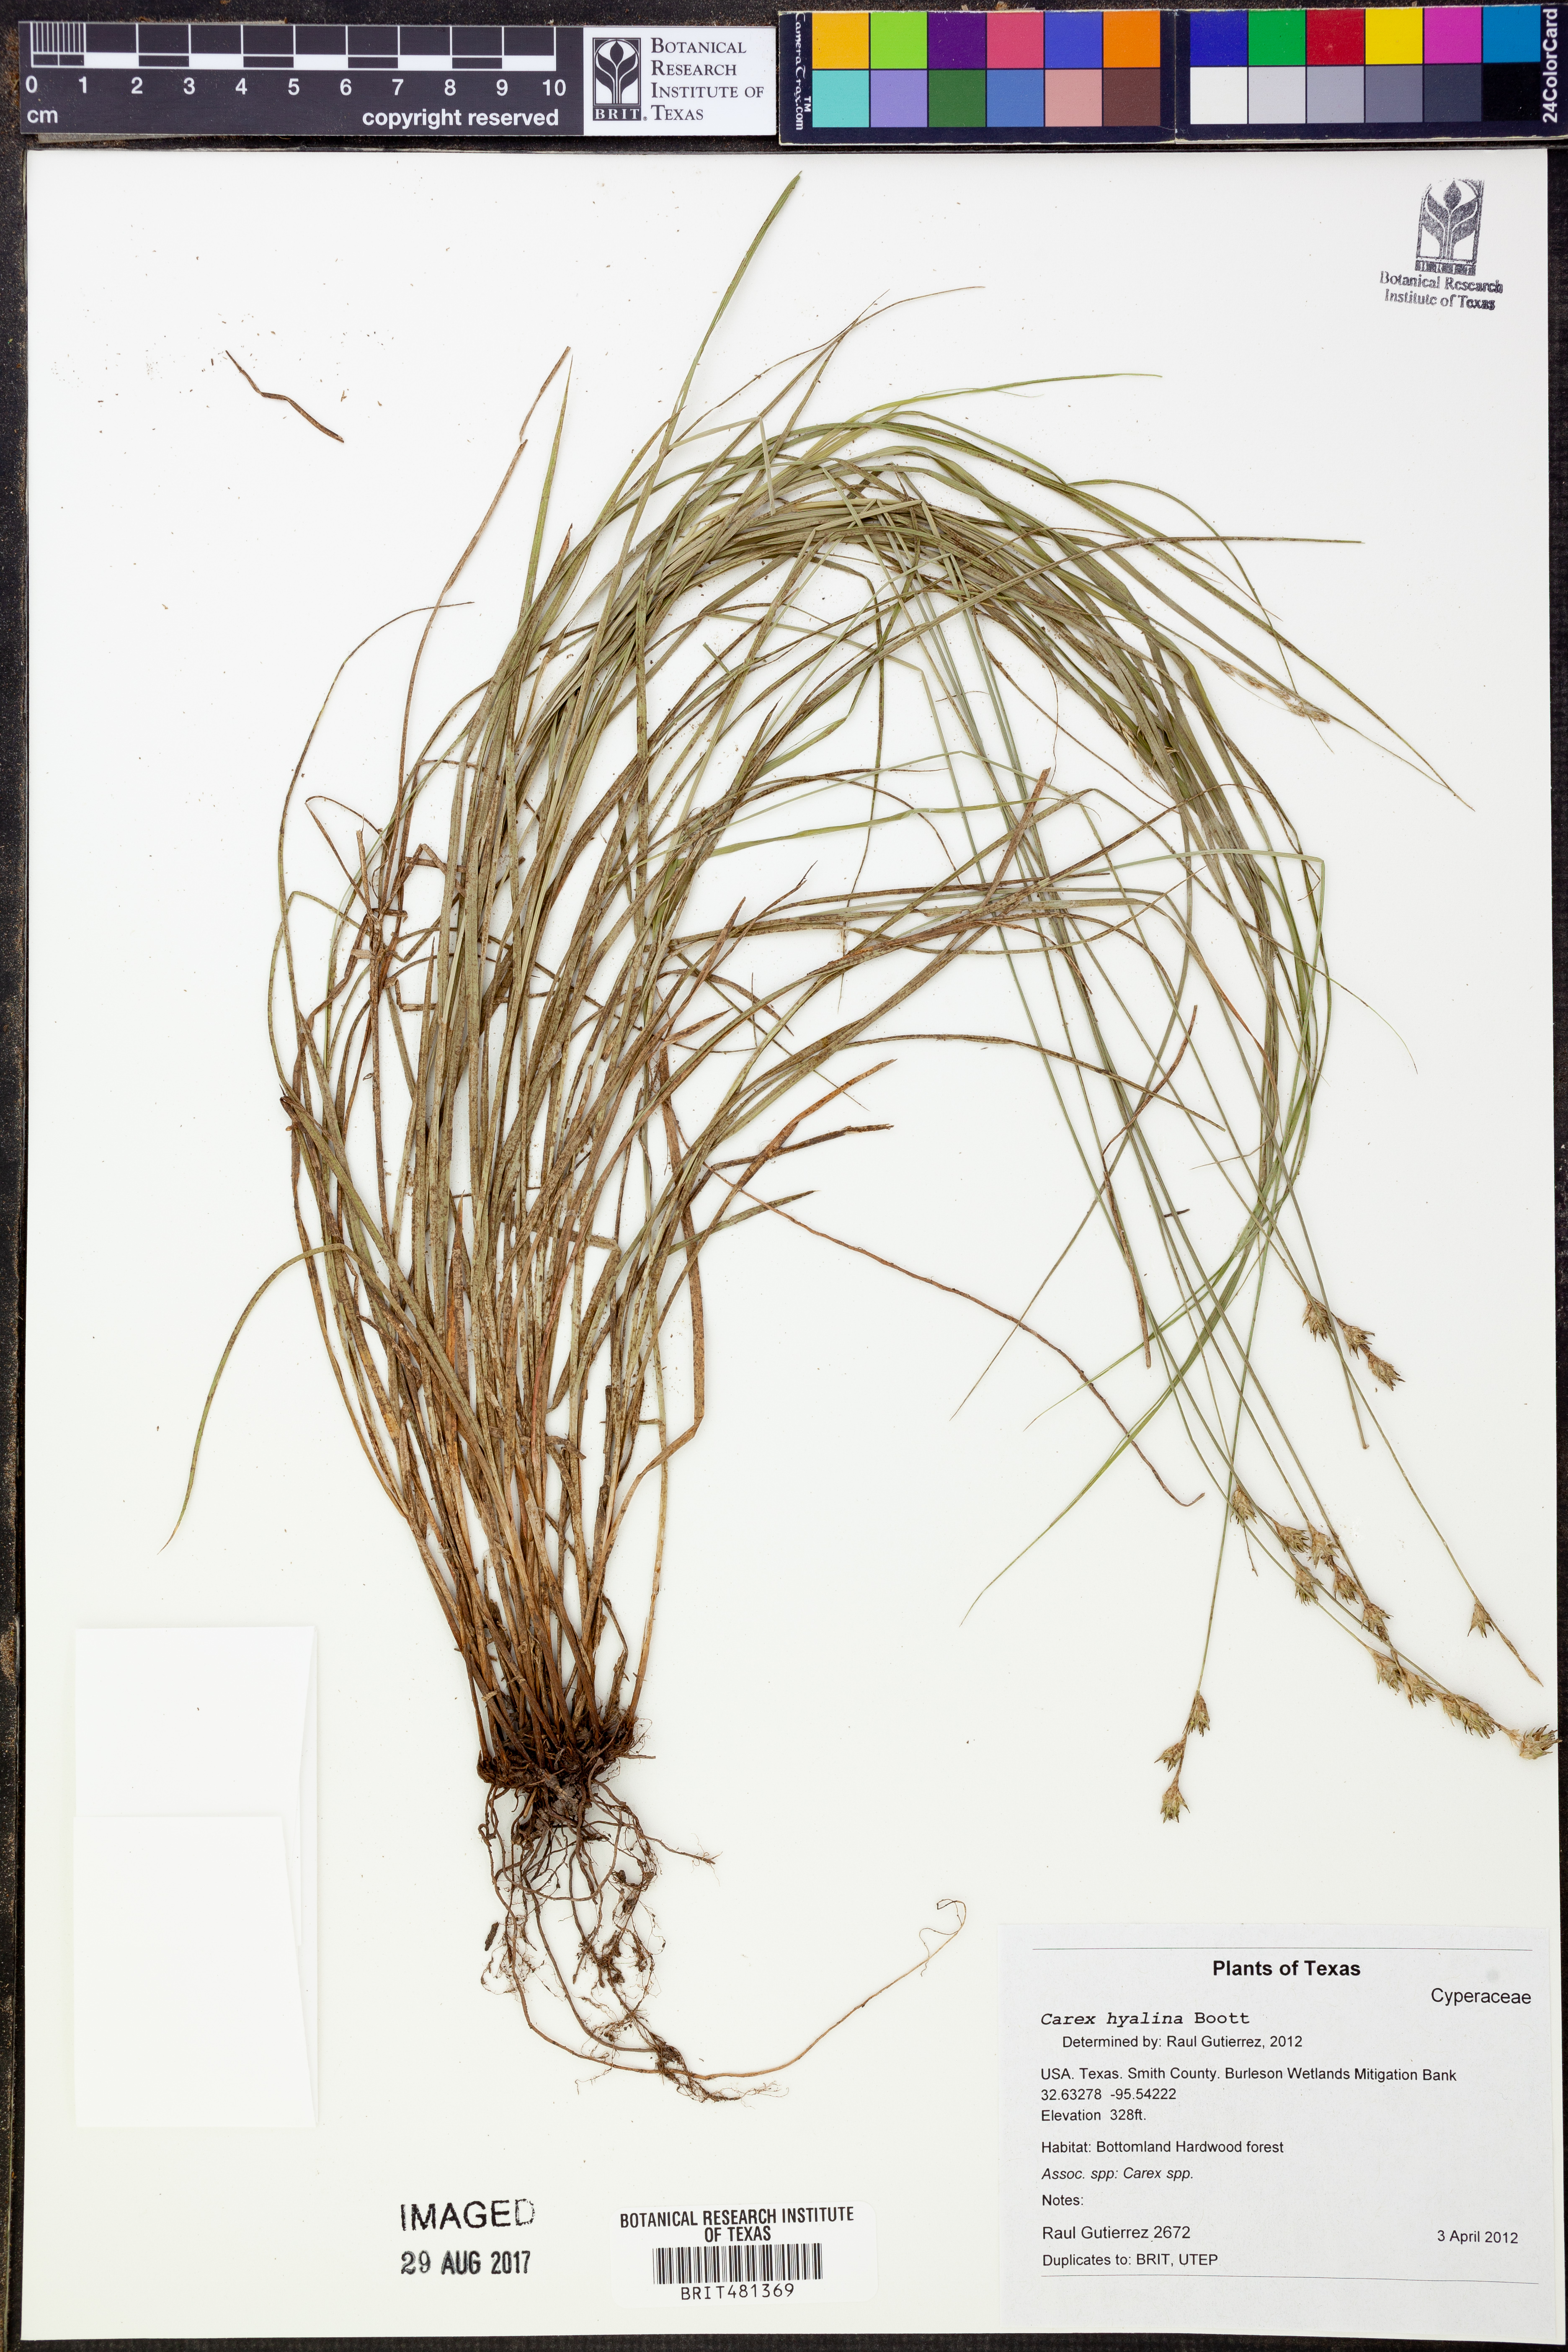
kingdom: Plantae
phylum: Tracheophyta
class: Liliopsida
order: Poales
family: Cyperaceae
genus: Carex
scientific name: Carex hyalina
